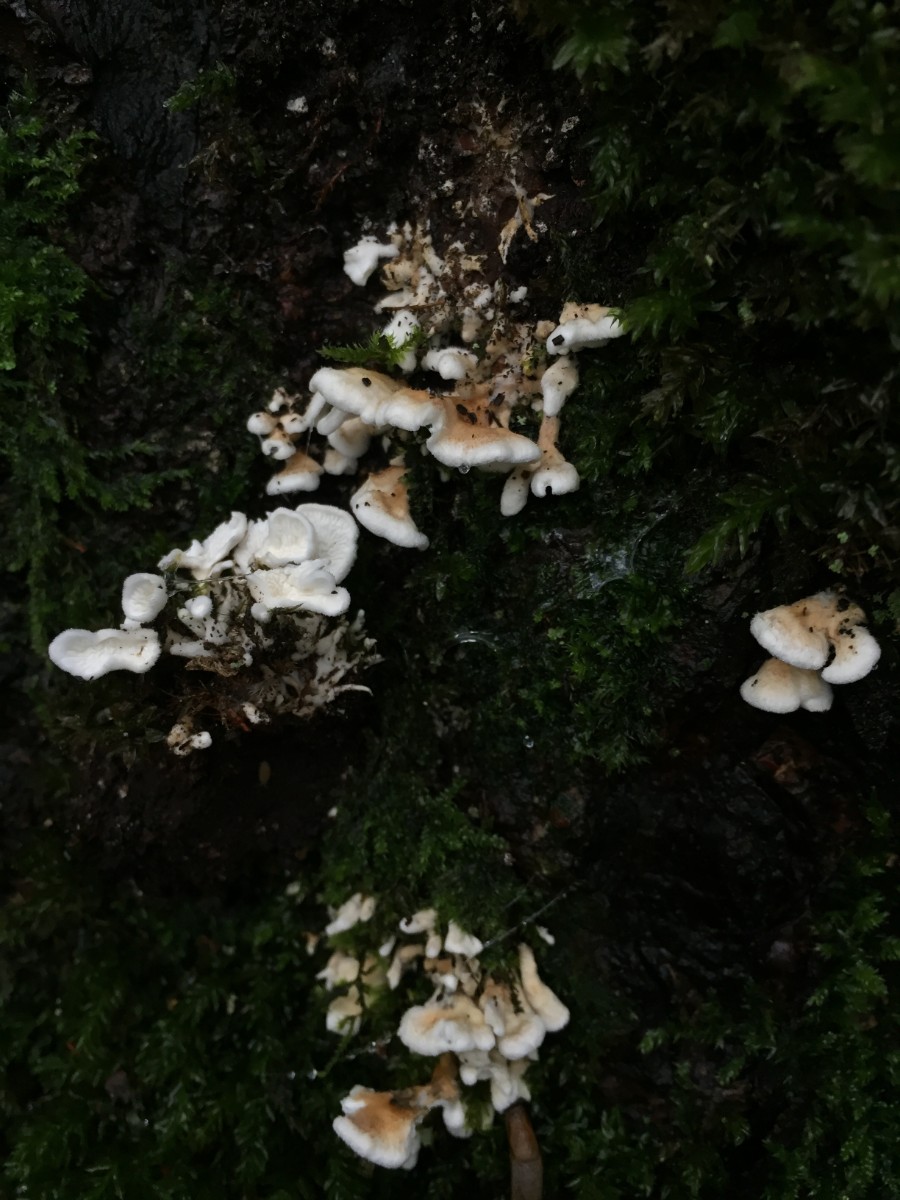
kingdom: Fungi
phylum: Basidiomycota
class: Agaricomycetes
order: Amylocorticiales
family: Amylocorticiaceae
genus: Plicaturopsis
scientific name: Plicaturopsis crispa
